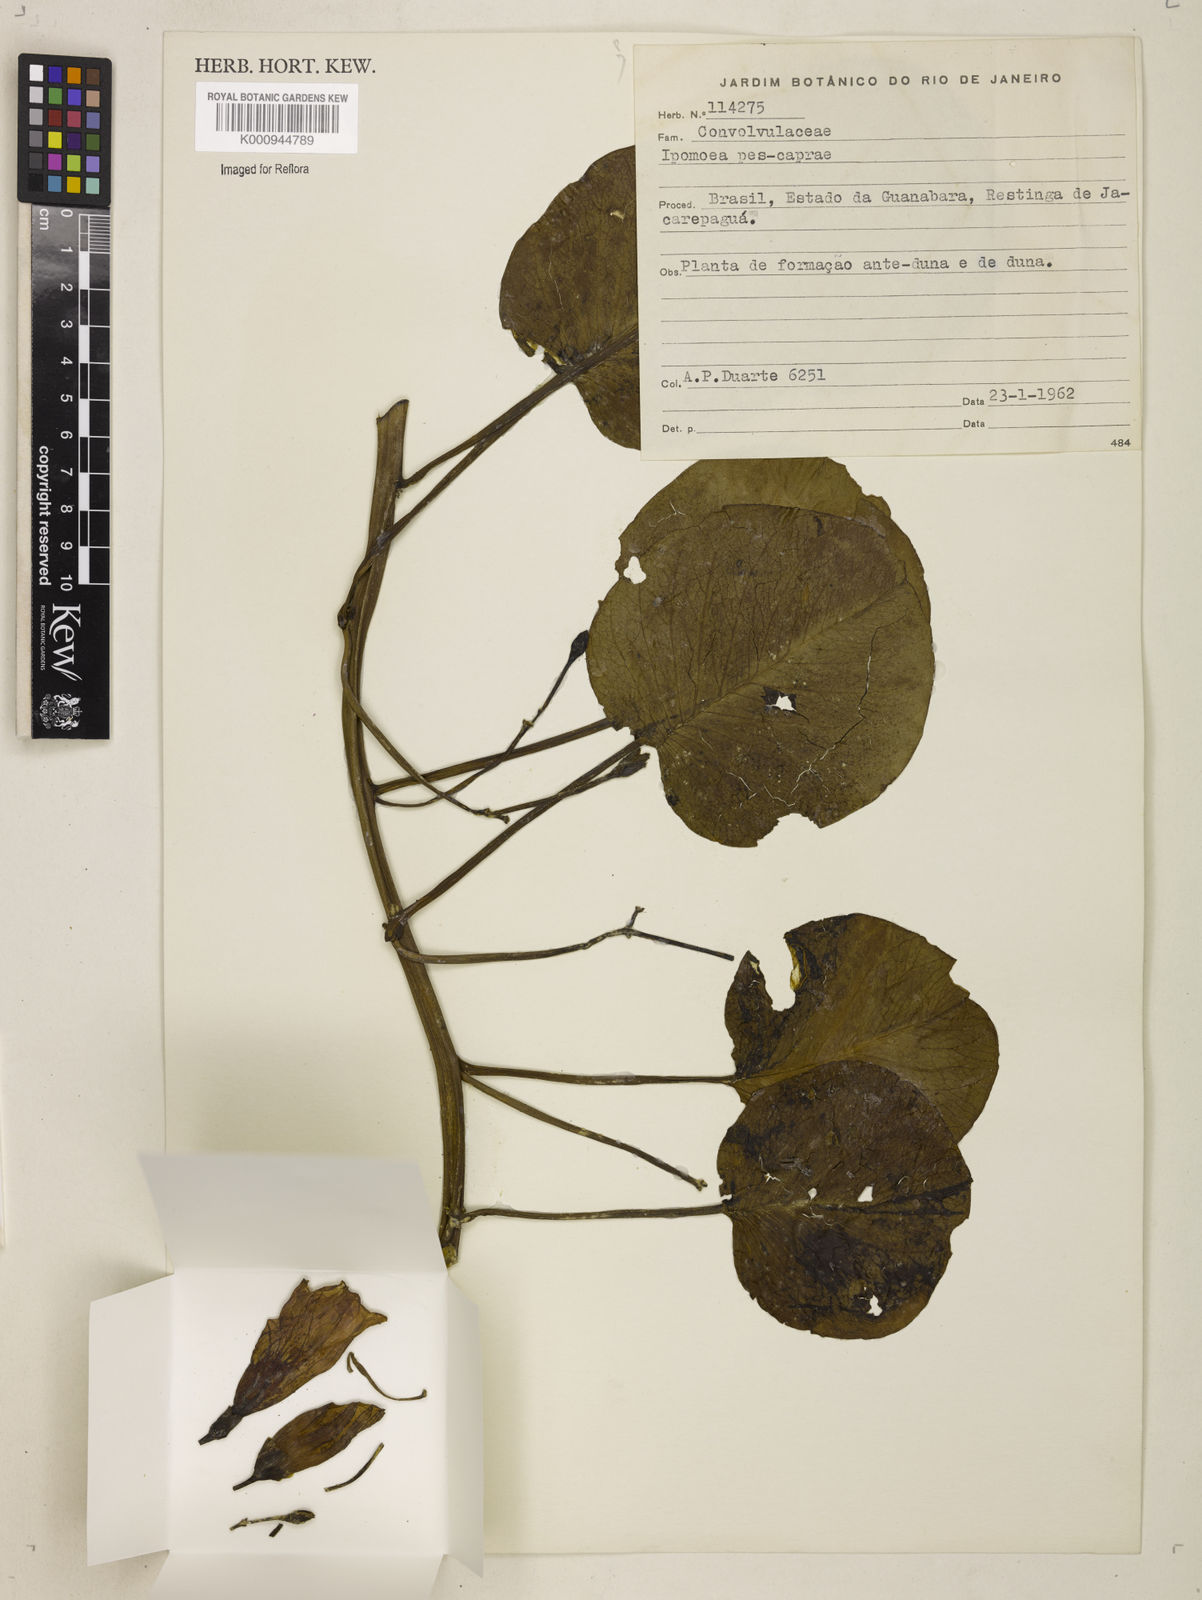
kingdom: Plantae
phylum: Tracheophyta
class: Magnoliopsida
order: Solanales
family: Convolvulaceae
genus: Ipomoea
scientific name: Ipomoea pes-caprae
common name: Beach morning glory
